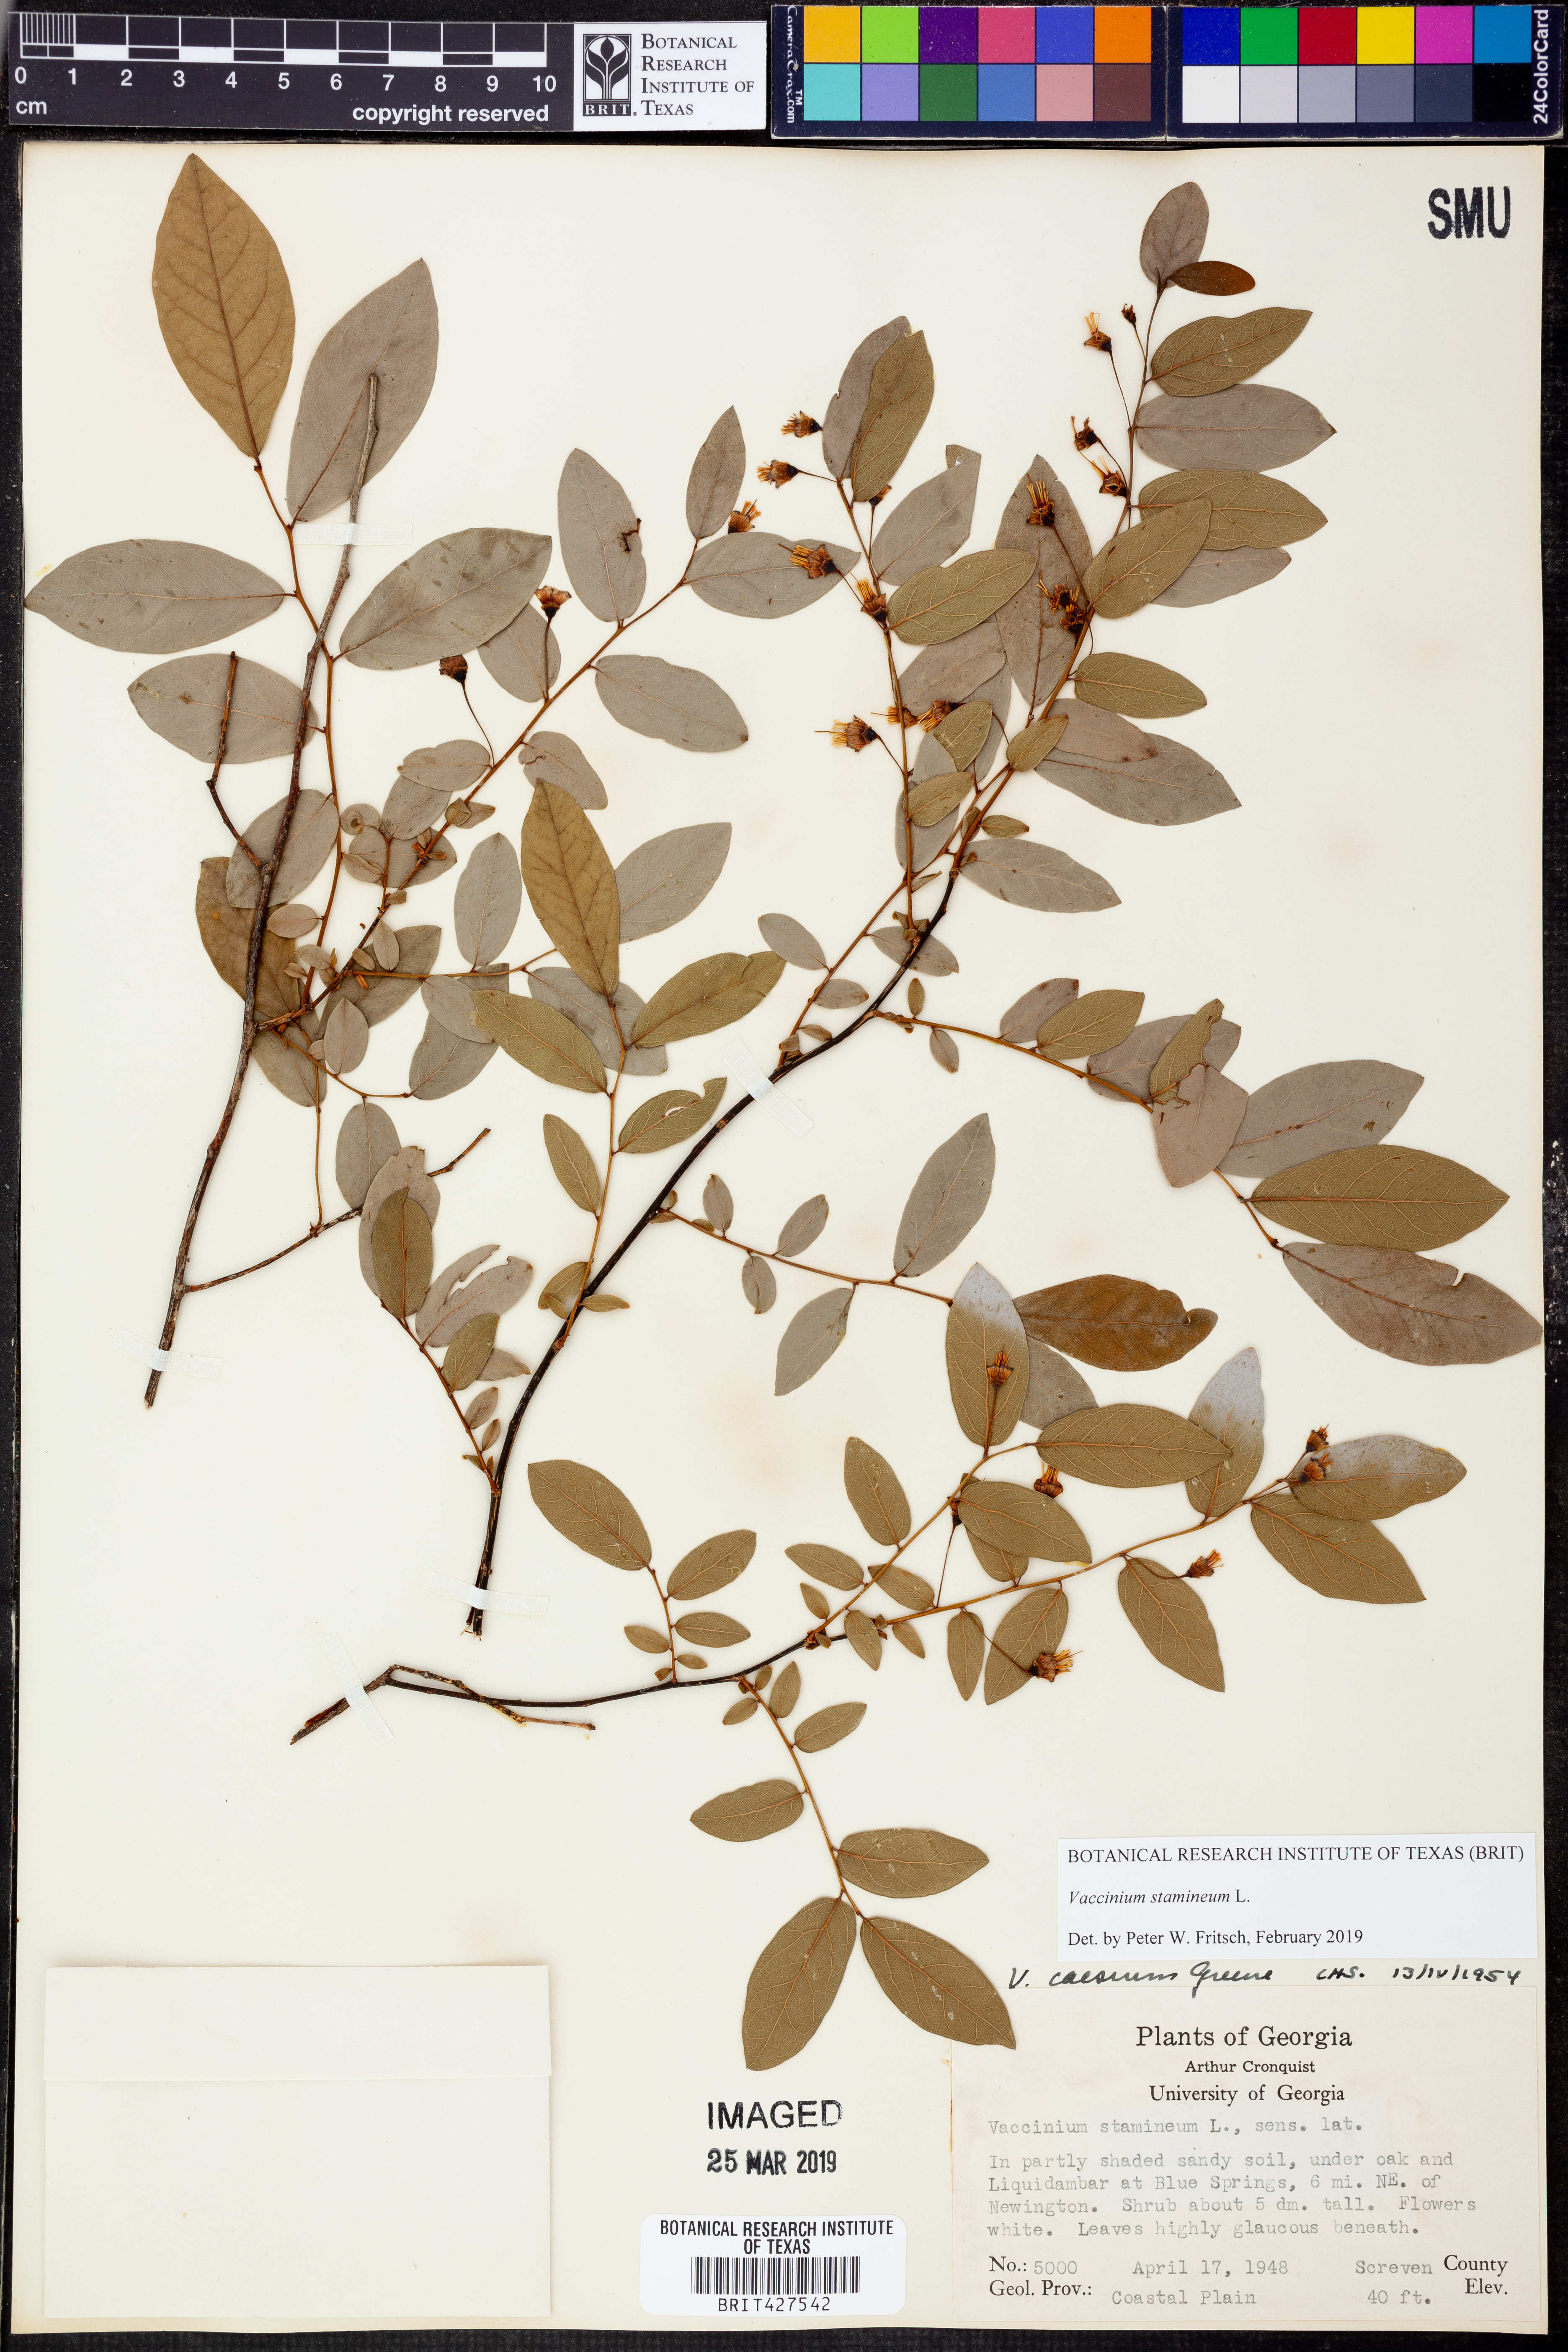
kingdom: Plantae
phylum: Tracheophyta
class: Magnoliopsida
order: Ericales
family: Ericaceae
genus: Vaccinium
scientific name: Vaccinium stamineum
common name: Deerberry
